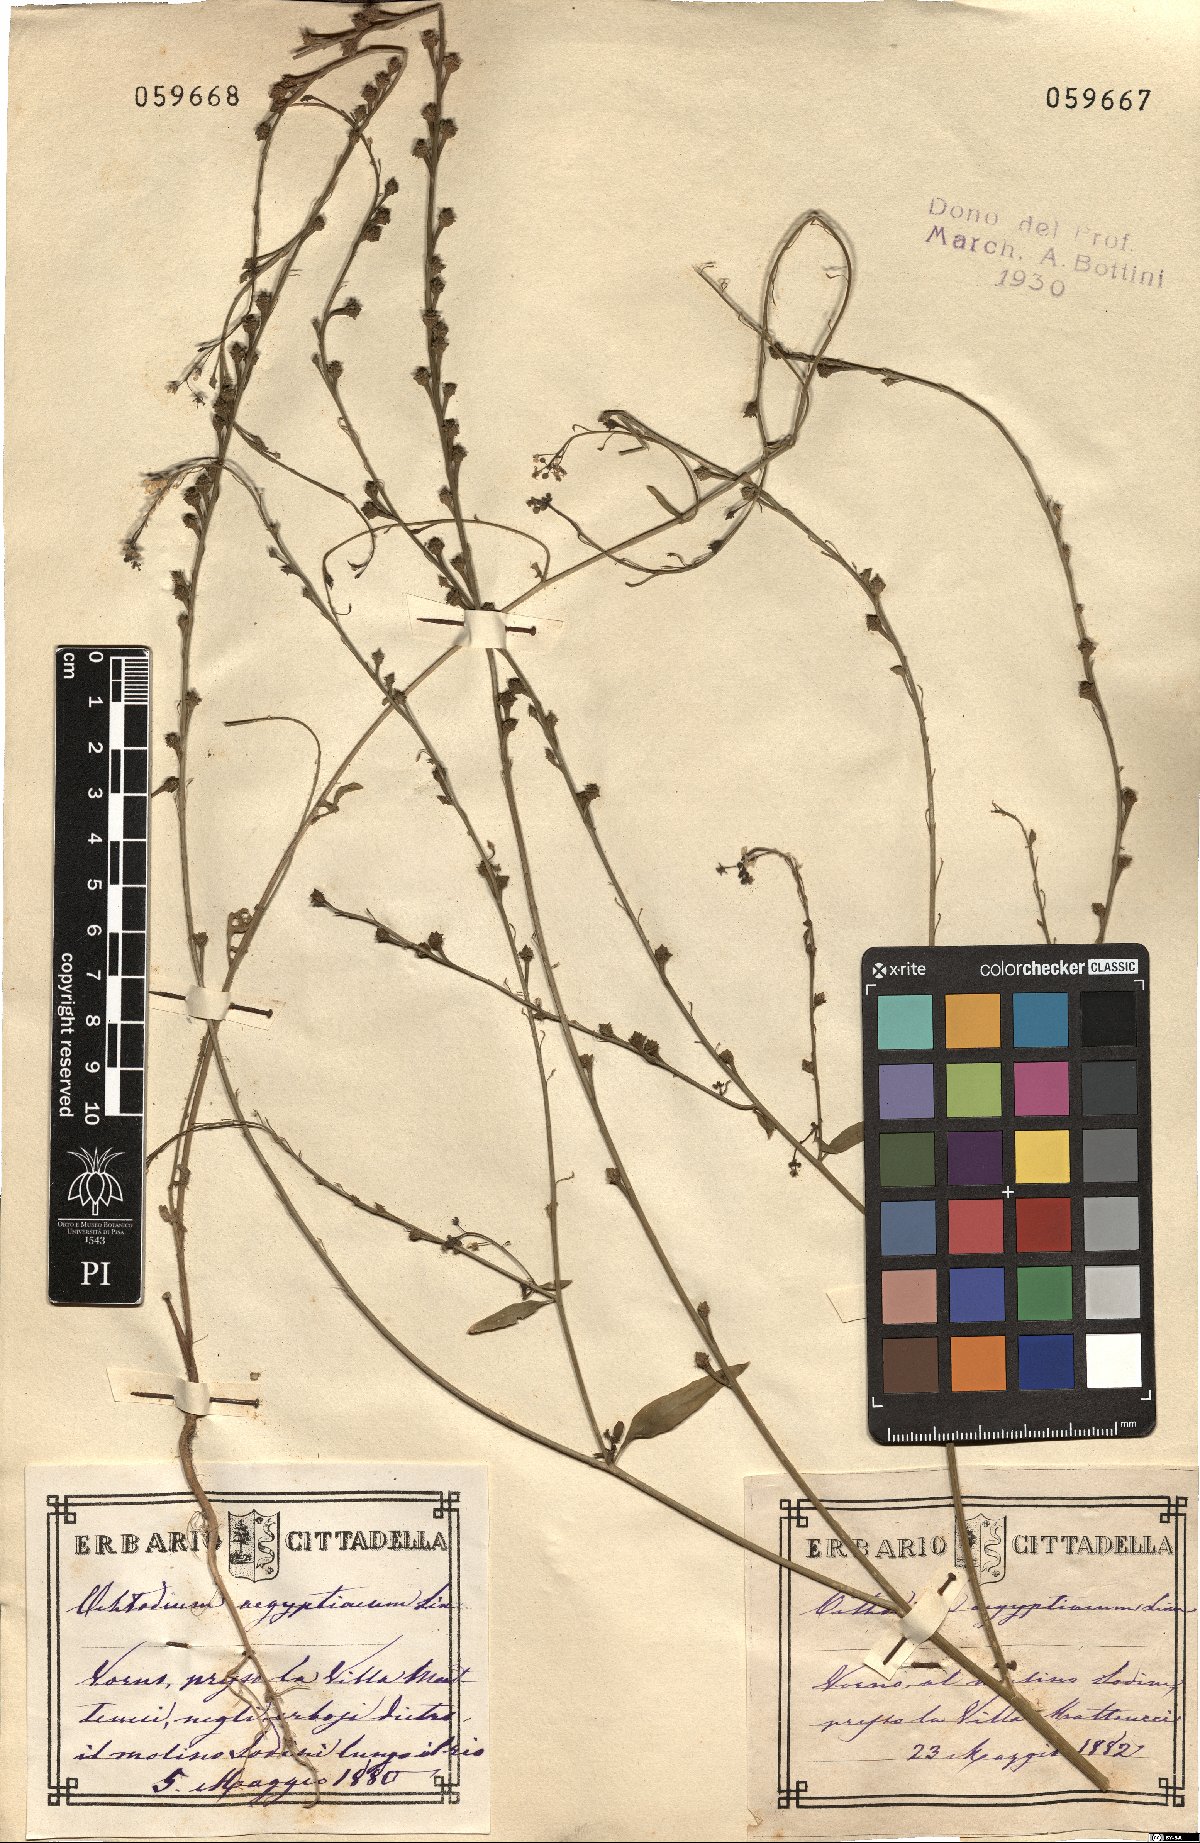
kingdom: Plantae
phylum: Tracheophyta
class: Magnoliopsida
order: Brassicales
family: Brassicaceae
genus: Ochthodium
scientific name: Ochthodium aegyptiacum
